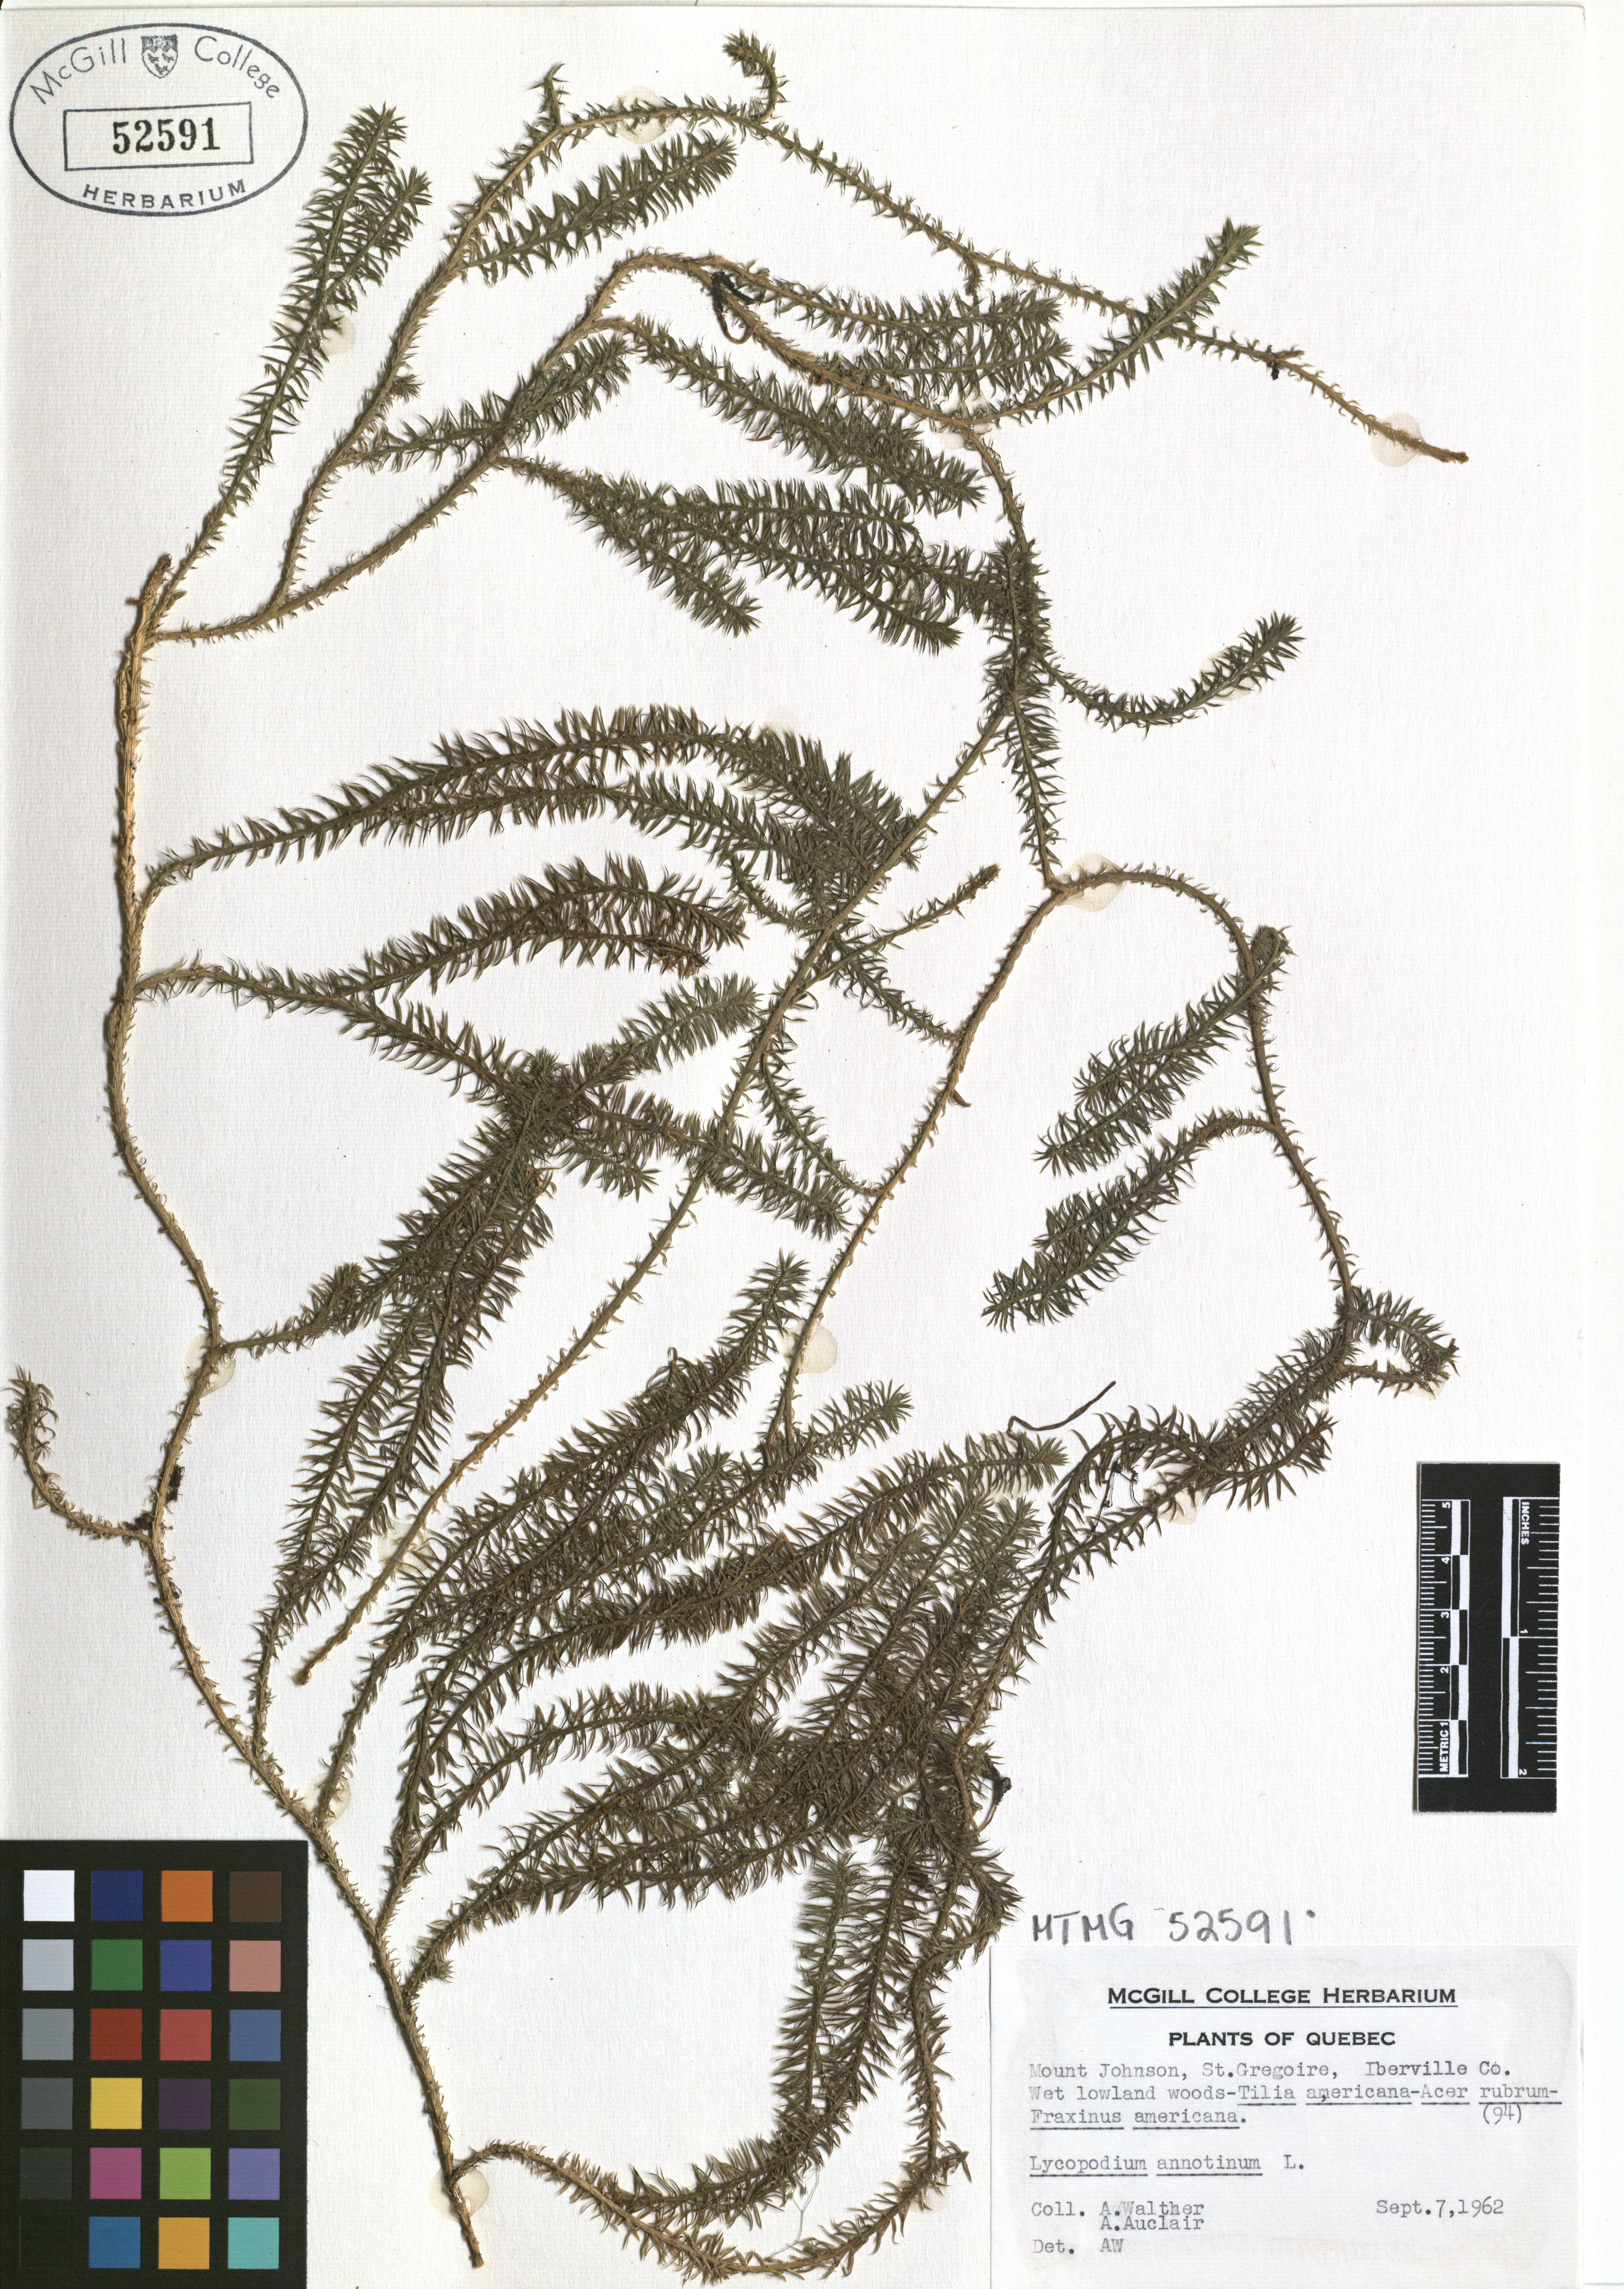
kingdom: Plantae
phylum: Tracheophyta
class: Lycopodiopsida
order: Lycopodiales
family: Lycopodiaceae
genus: Spinulum
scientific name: Spinulum annotinum
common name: Interrupted club-moss
